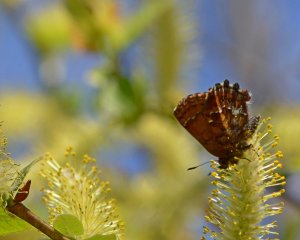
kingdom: Animalia
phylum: Arthropoda
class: Insecta
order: Lepidoptera
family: Lycaenidae
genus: Incisalia
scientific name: Incisalia niphon
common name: Eastern Pine Elfin
